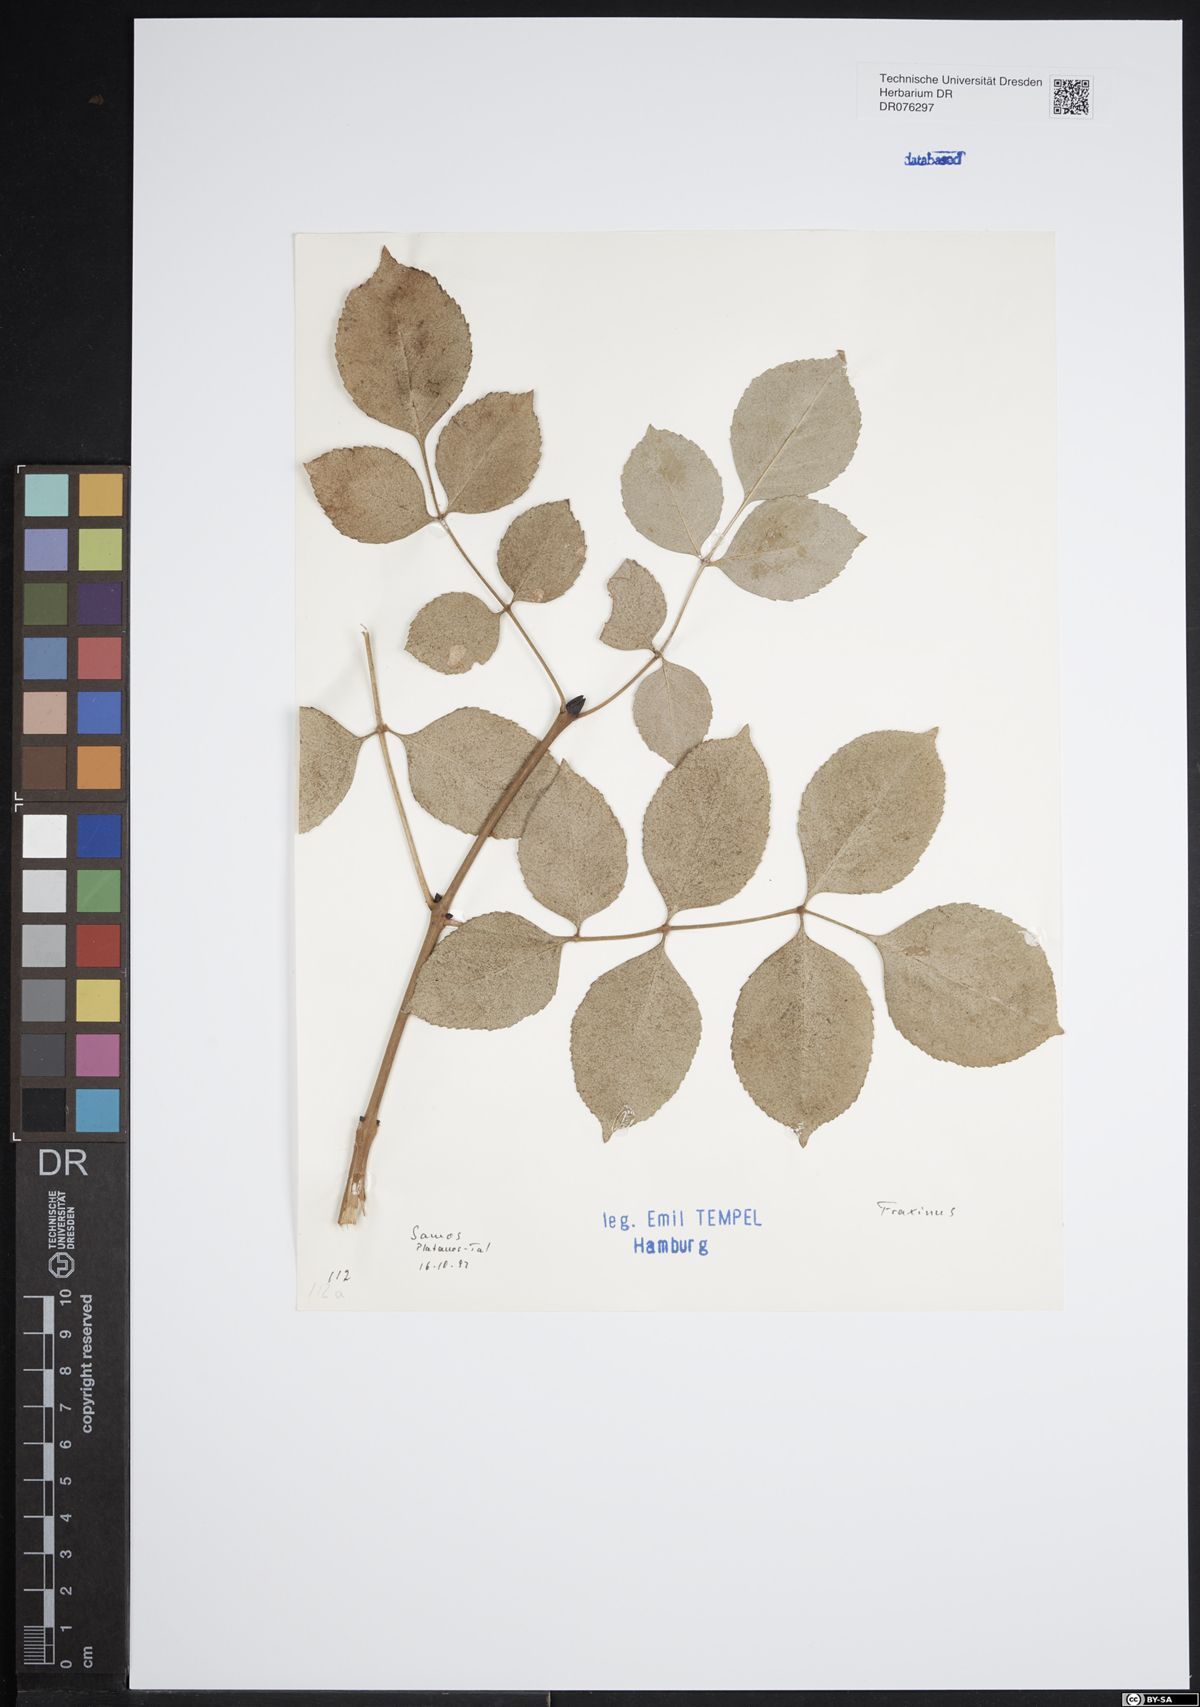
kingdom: Plantae
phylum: Tracheophyta
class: Magnoliopsida
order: Lamiales
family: Oleaceae
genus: Fraxinus
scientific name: Fraxinus
